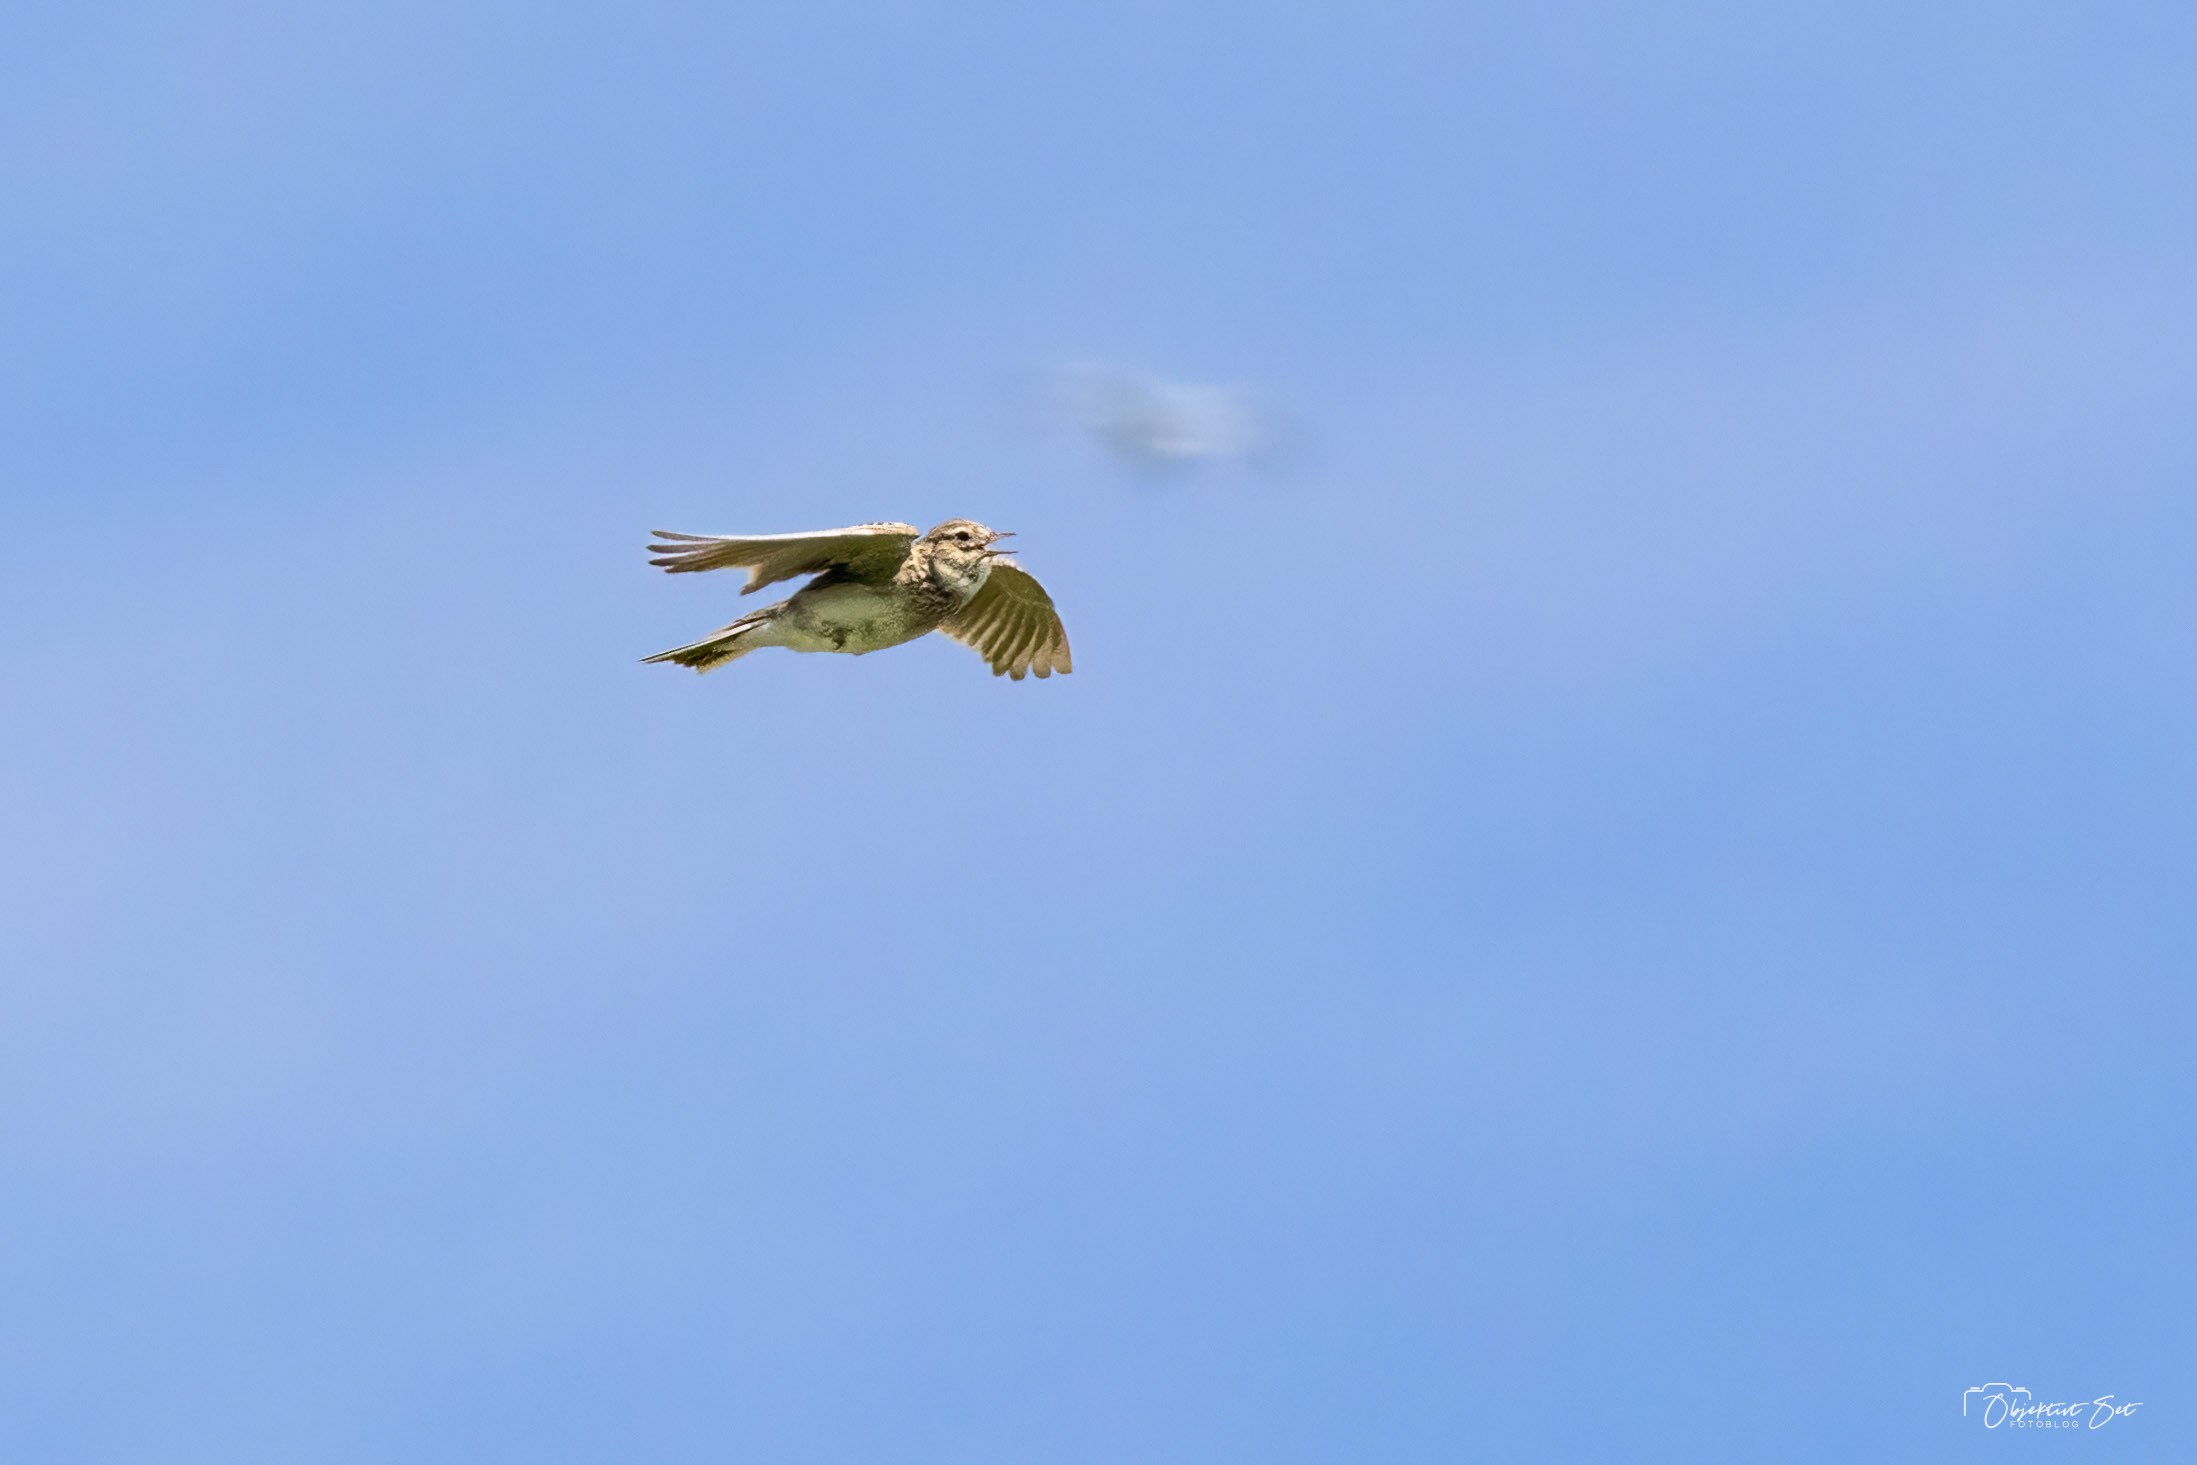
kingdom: Animalia
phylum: Chordata
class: Aves
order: Passeriformes
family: Alaudidae
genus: Alauda
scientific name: Alauda arvensis
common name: Sanglærke
